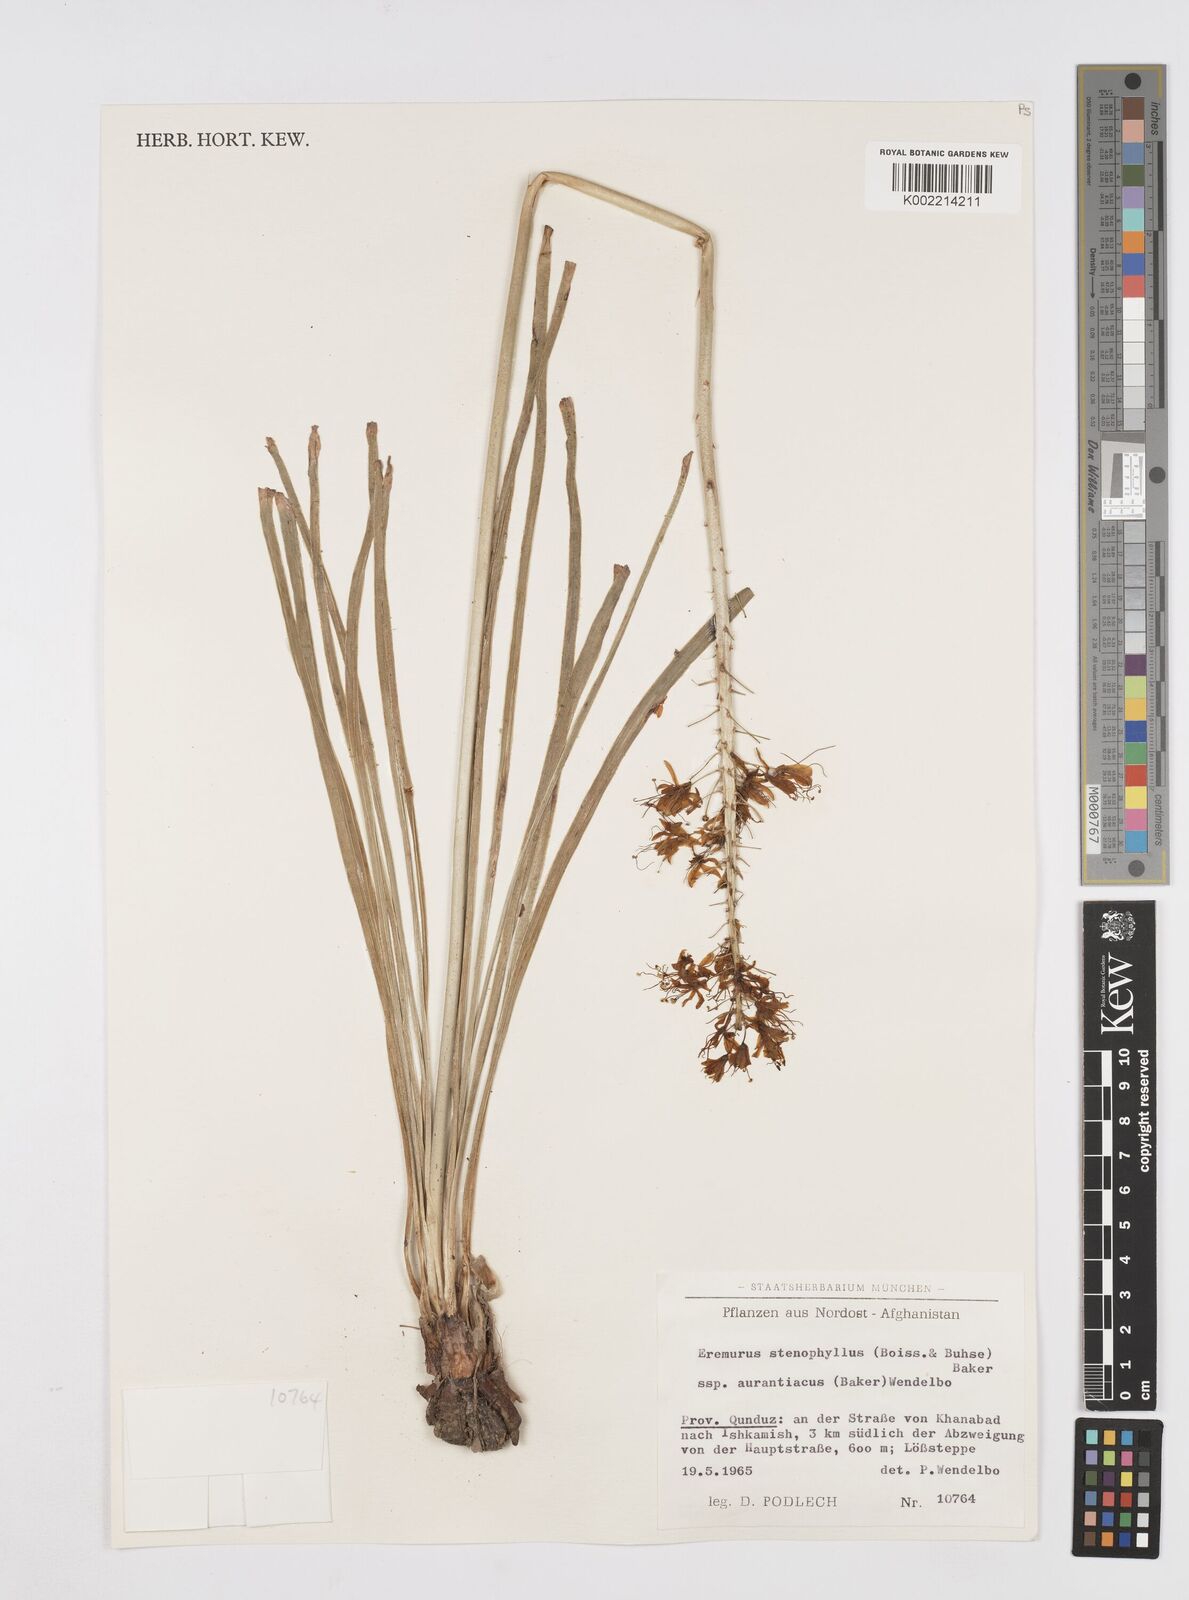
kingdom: Plantae
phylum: Tracheophyta
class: Liliopsida
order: Asparagales
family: Asphodelaceae
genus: Eremurus
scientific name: Eremurus stenophyllus
